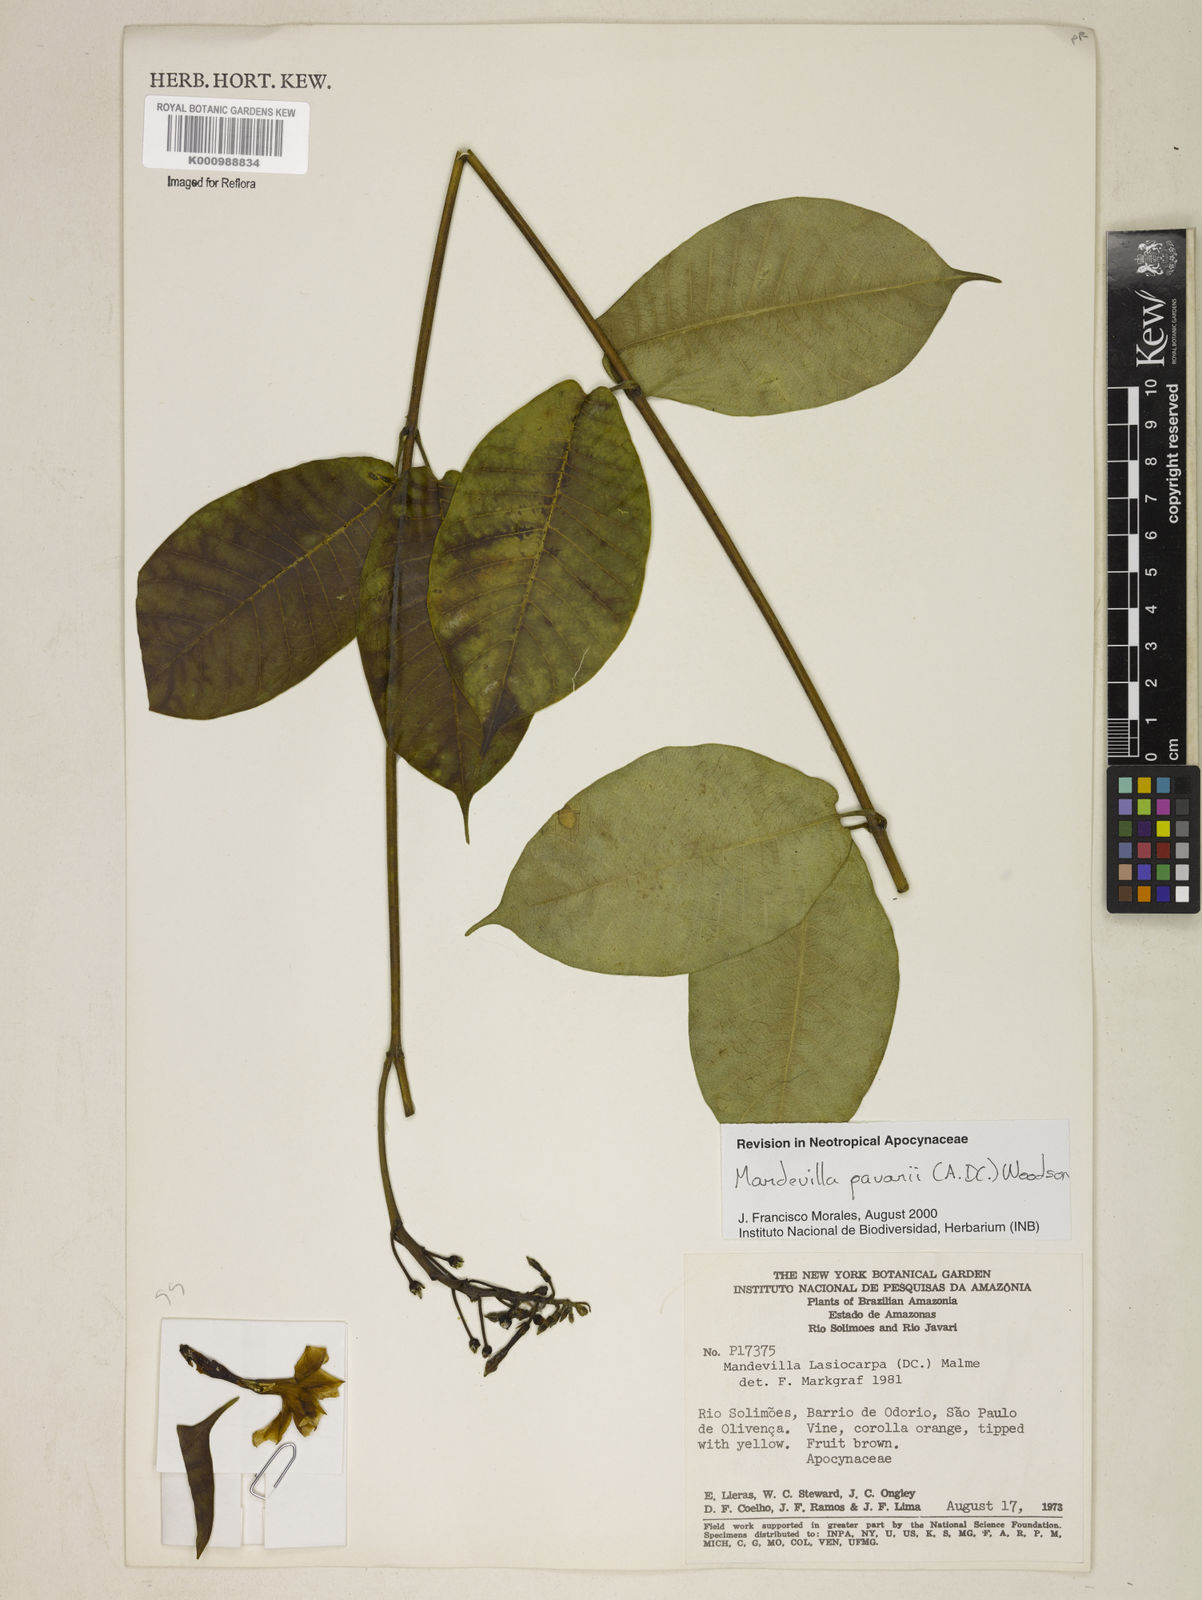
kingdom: Plantae
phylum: Tracheophyta
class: Magnoliopsida
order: Gentianales
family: Apocynaceae
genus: Mandevilla
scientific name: Mandevilla pavonii
